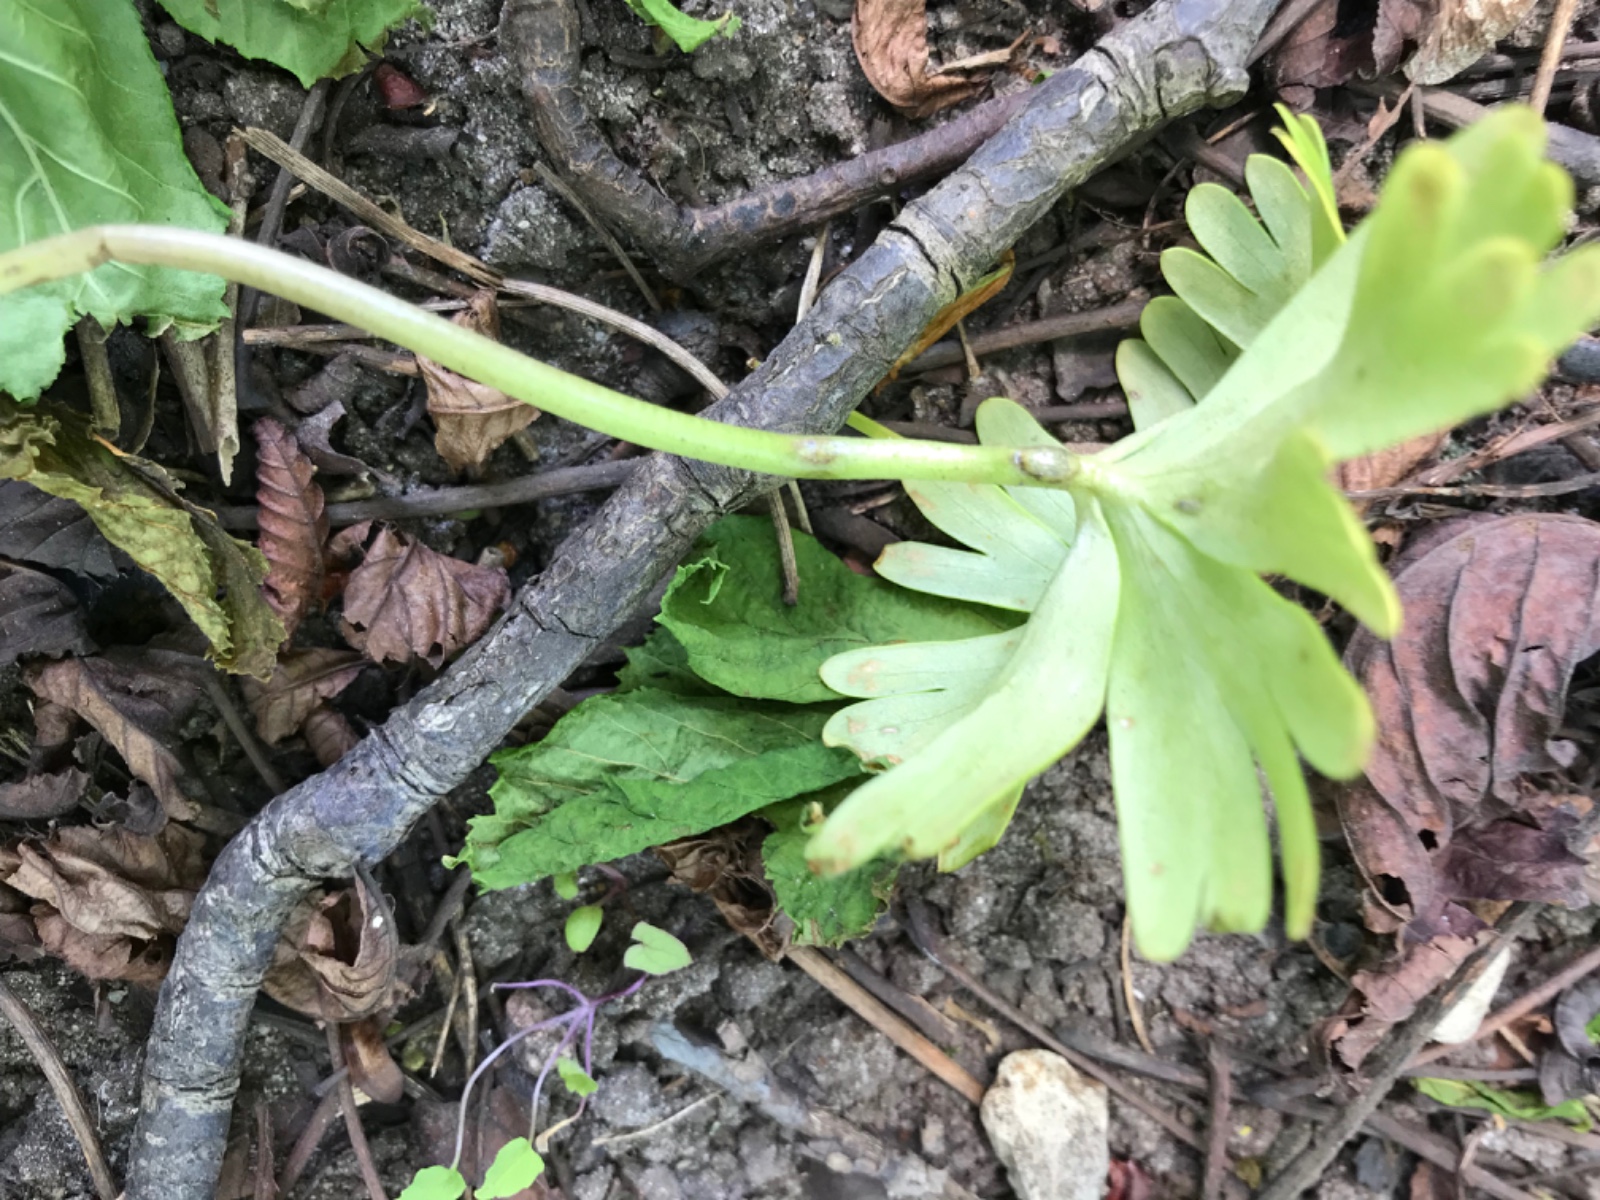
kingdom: Fungi
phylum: Basidiomycota
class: Ustilaginomycetes
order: Urocystidales
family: Urocystidaceae
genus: Urocystis
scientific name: Urocystis eranthidis
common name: erantis-brand
